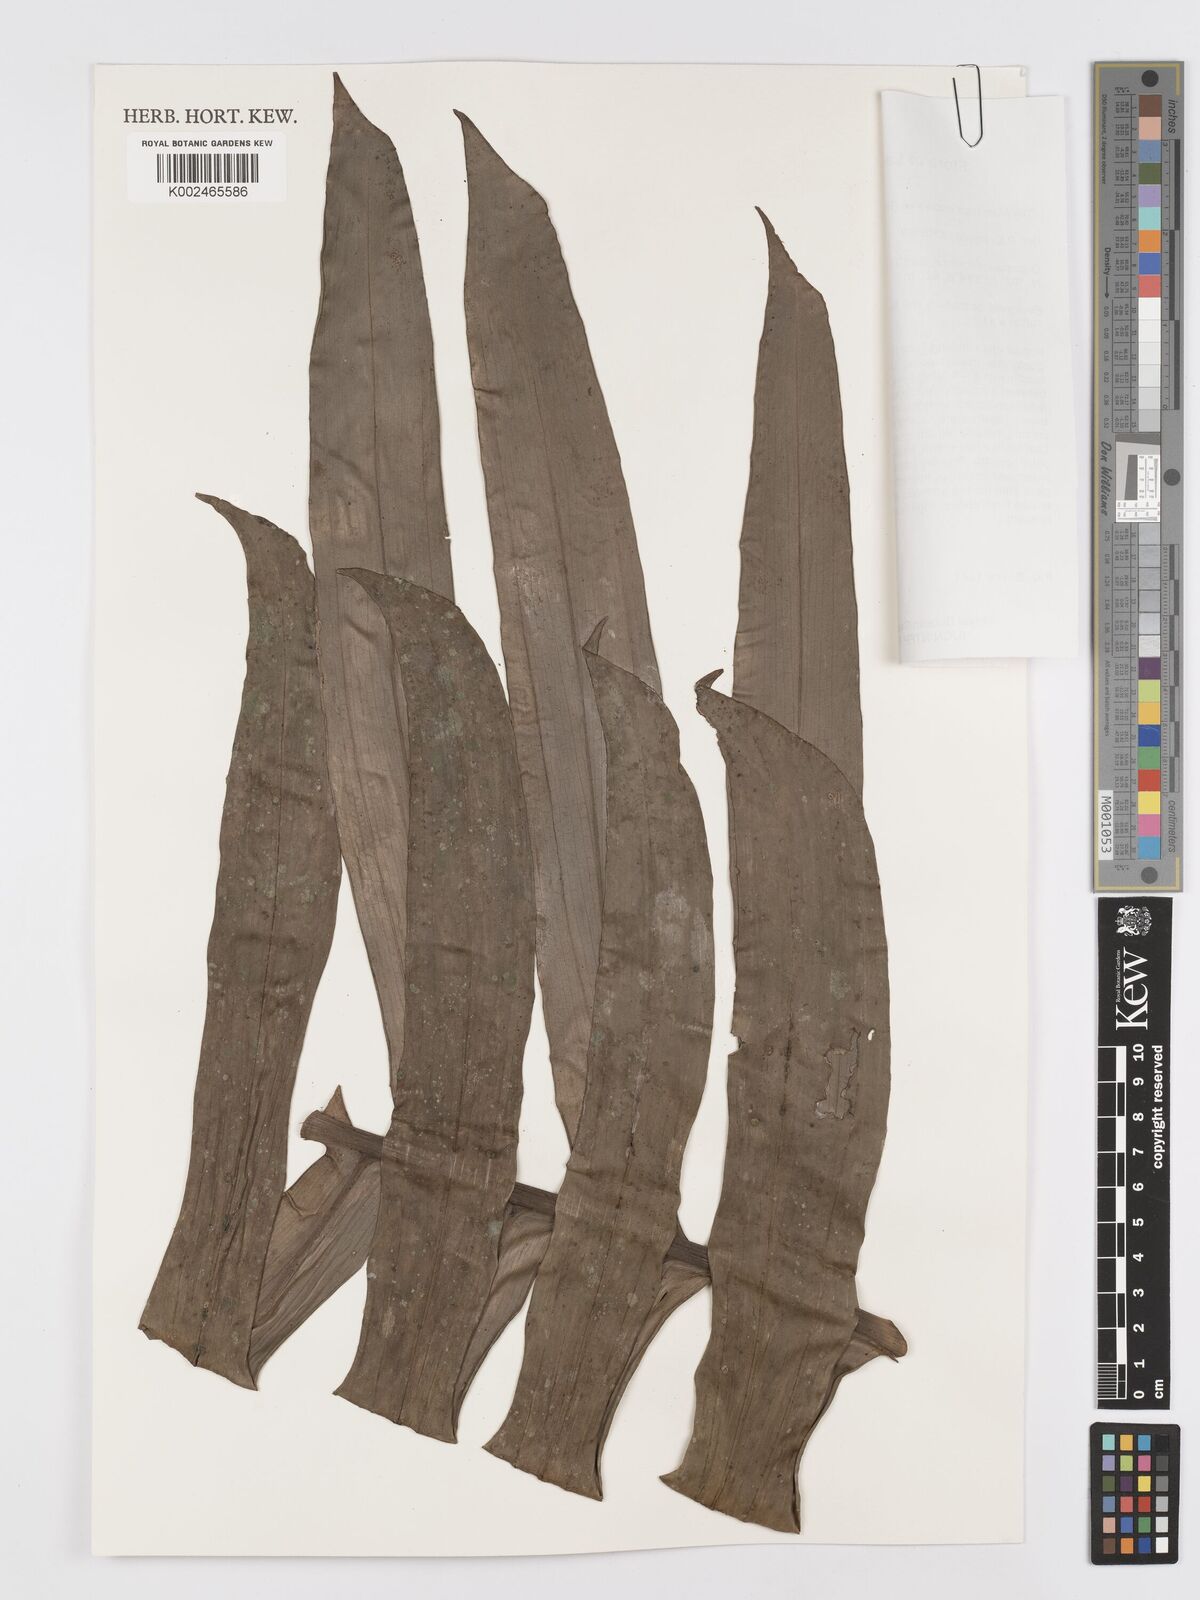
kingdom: Plantae
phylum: Tracheophyta
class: Liliopsida
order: Alismatales
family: Araceae
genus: Rhaphidophora
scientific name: Rhaphidophora decursiva
